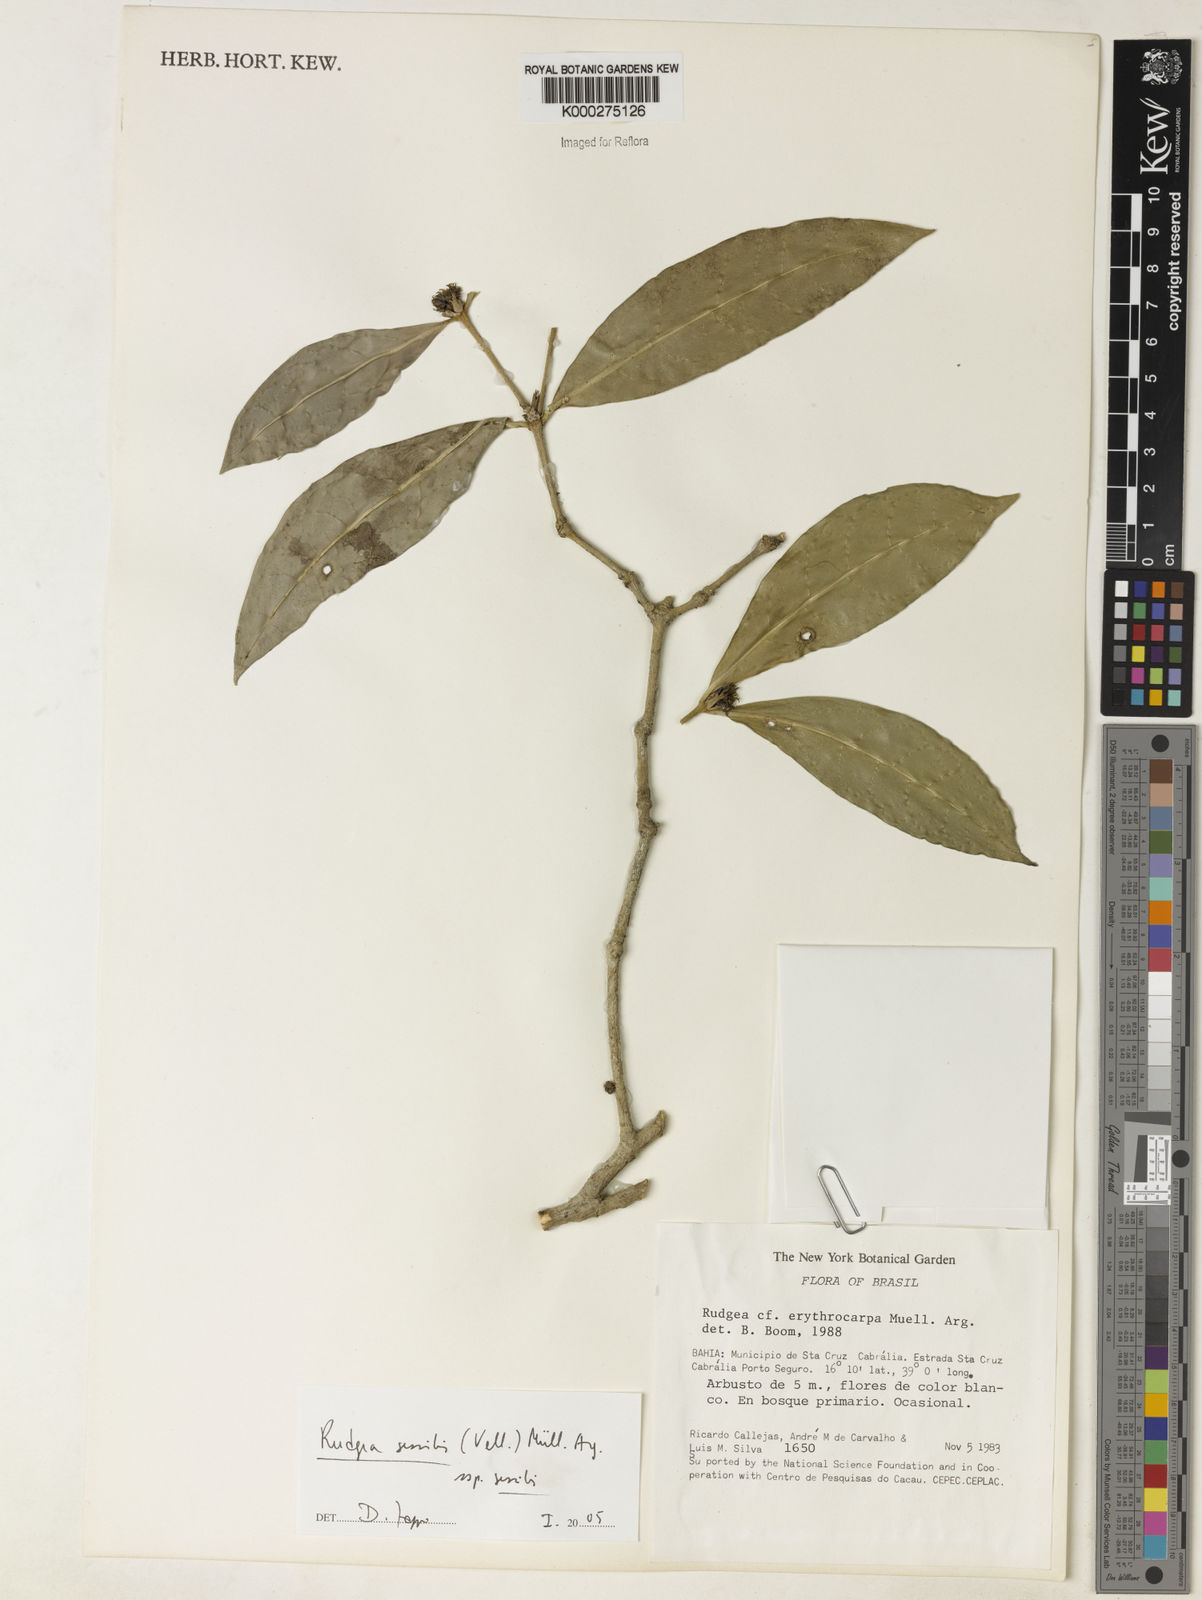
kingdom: Plantae
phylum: Tracheophyta
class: Magnoliopsida
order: Gentianales
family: Rubiaceae
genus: Rudgea
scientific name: Rudgea sessilis
